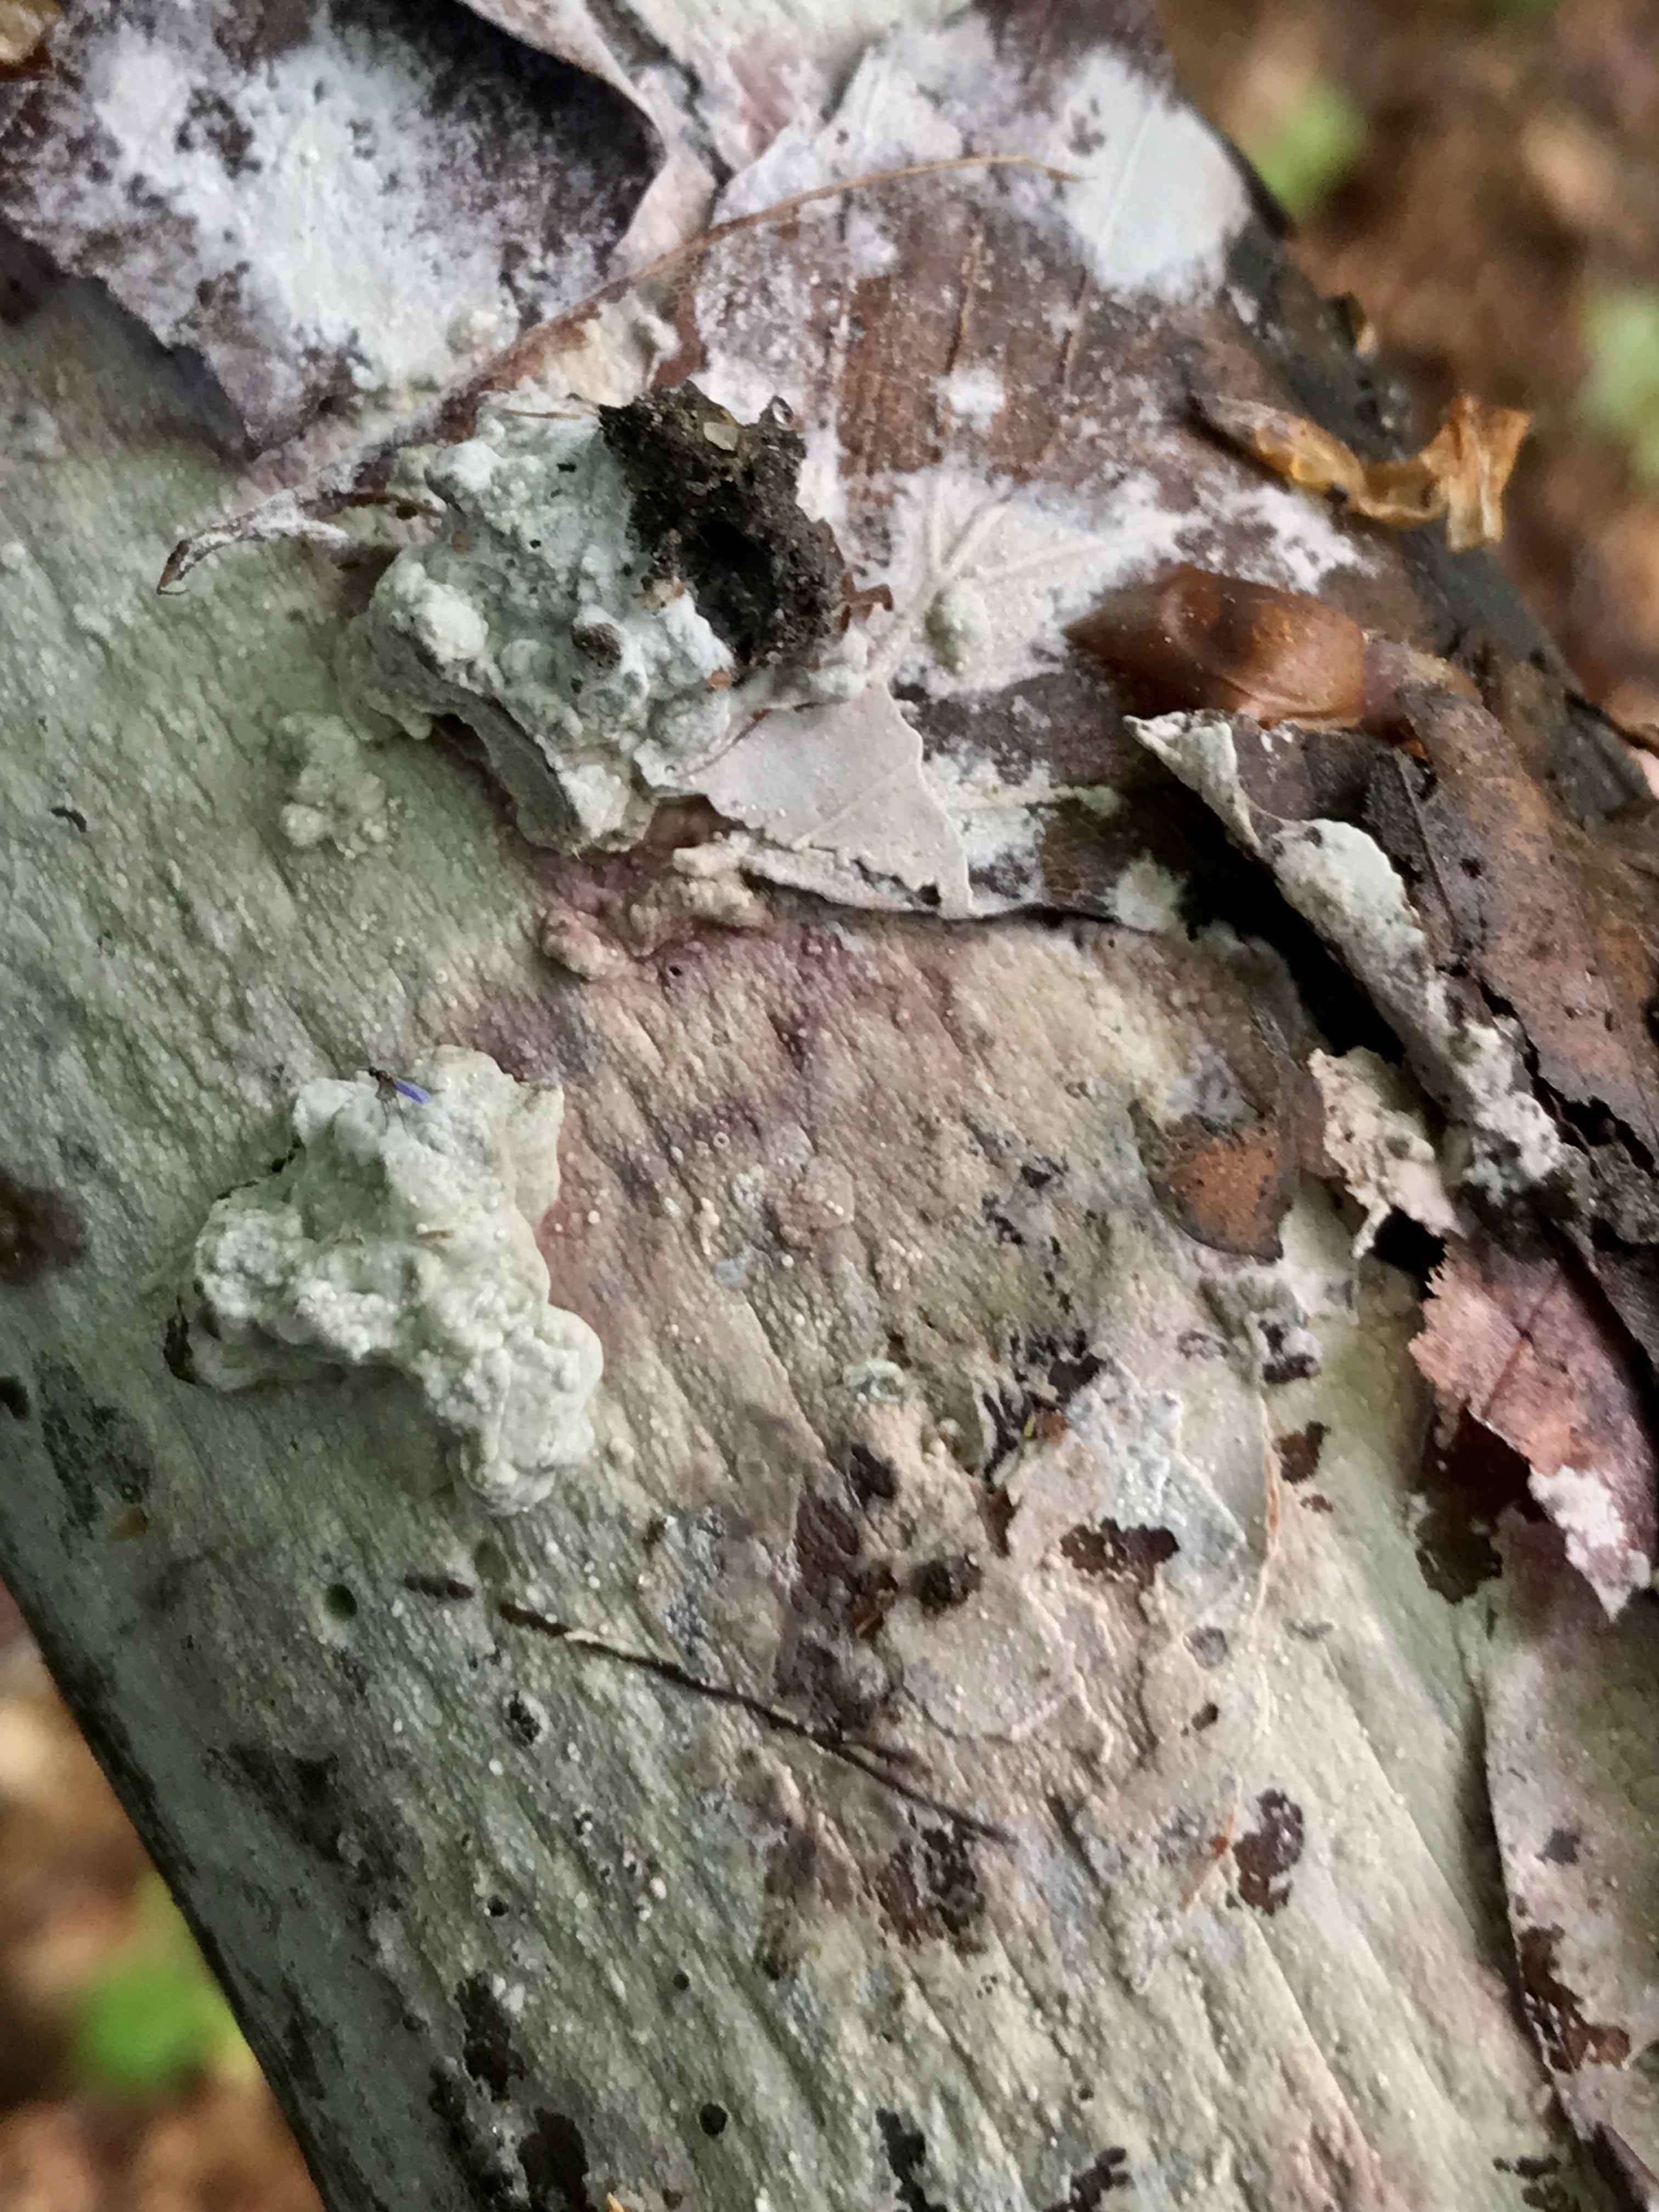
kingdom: Fungi
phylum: Basidiomycota
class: Agaricomycetes
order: Polyporales
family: Hyphodermataceae
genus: Hyphoderma
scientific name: Hyphoderma
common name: kalkskind
